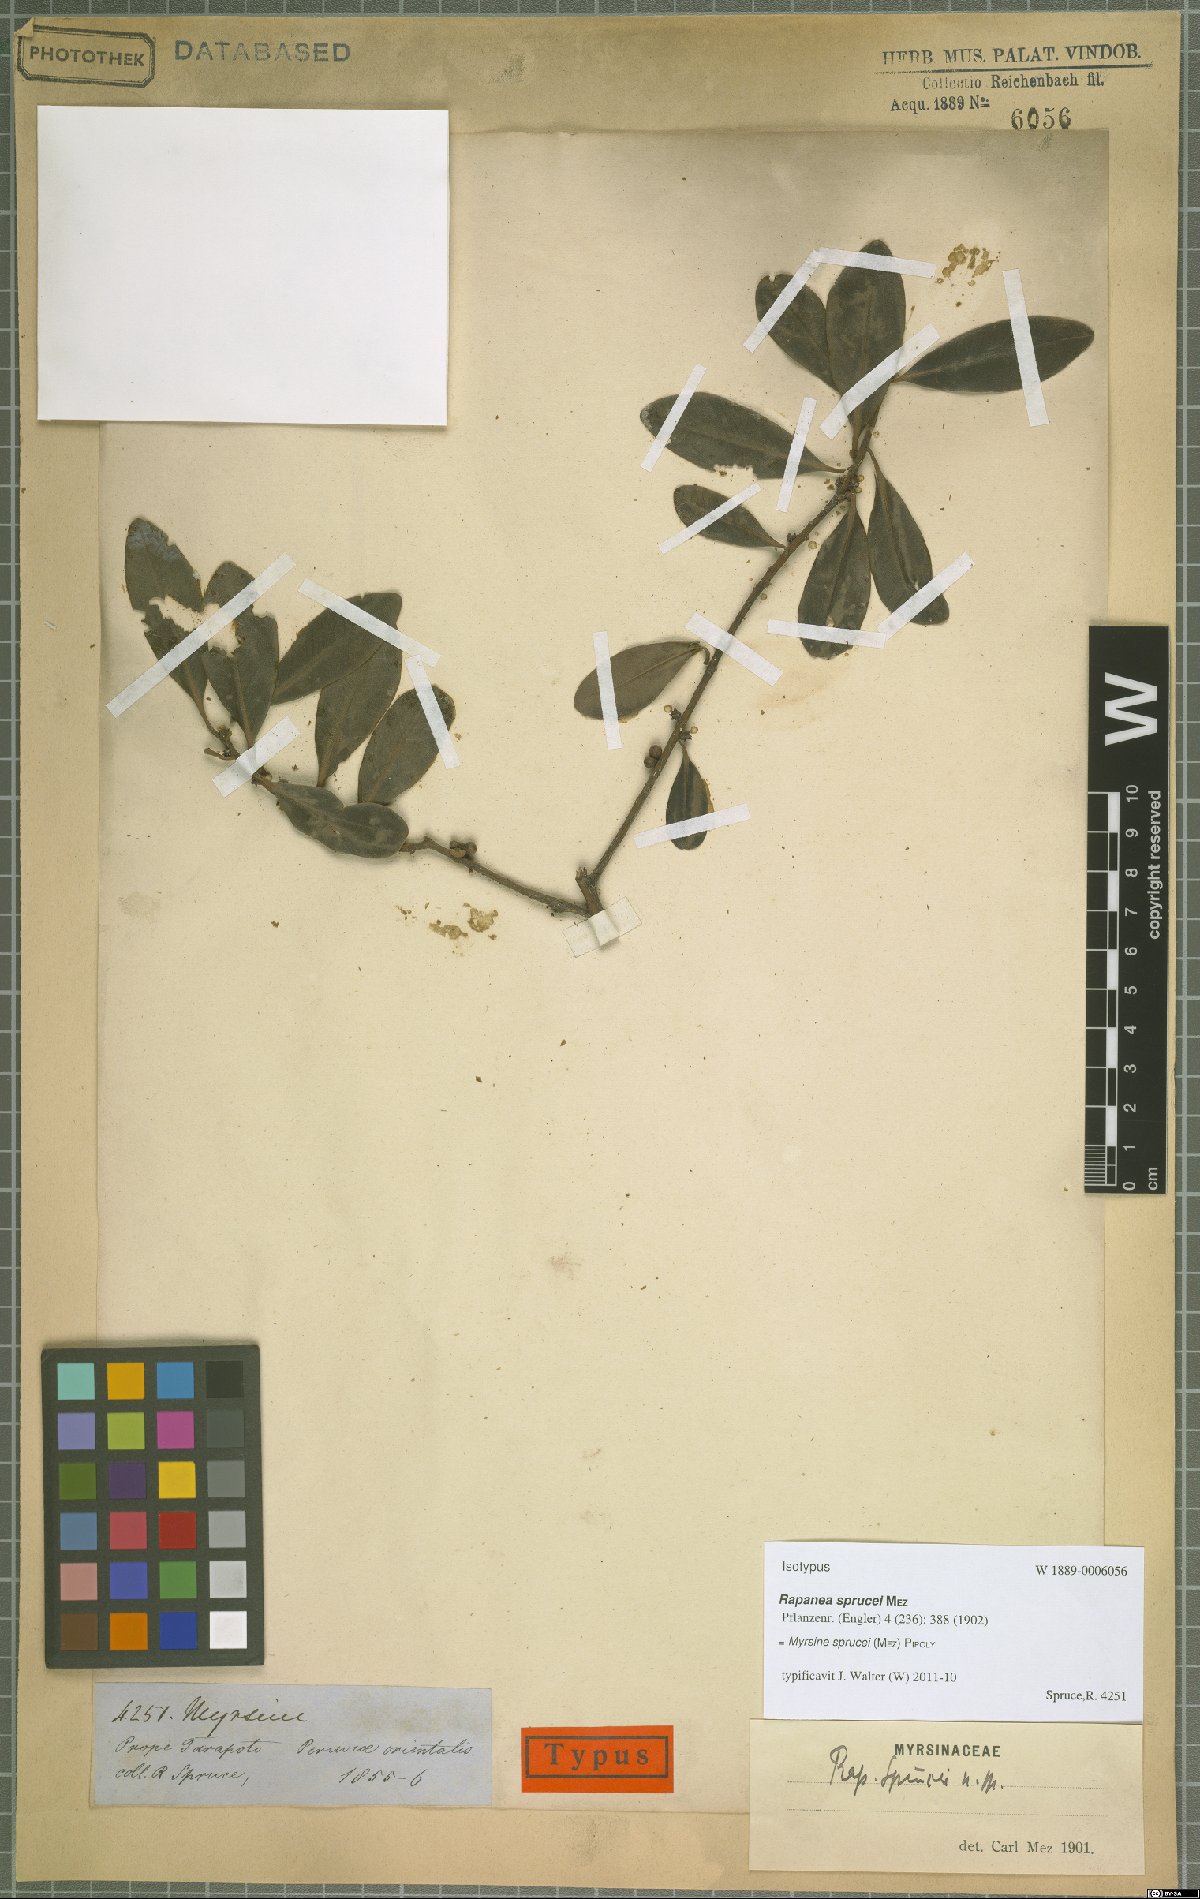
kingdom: Plantae
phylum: Tracheophyta
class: Magnoliopsida
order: Ericales
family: Primulaceae
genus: Myrsine
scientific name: Myrsine sprucei
